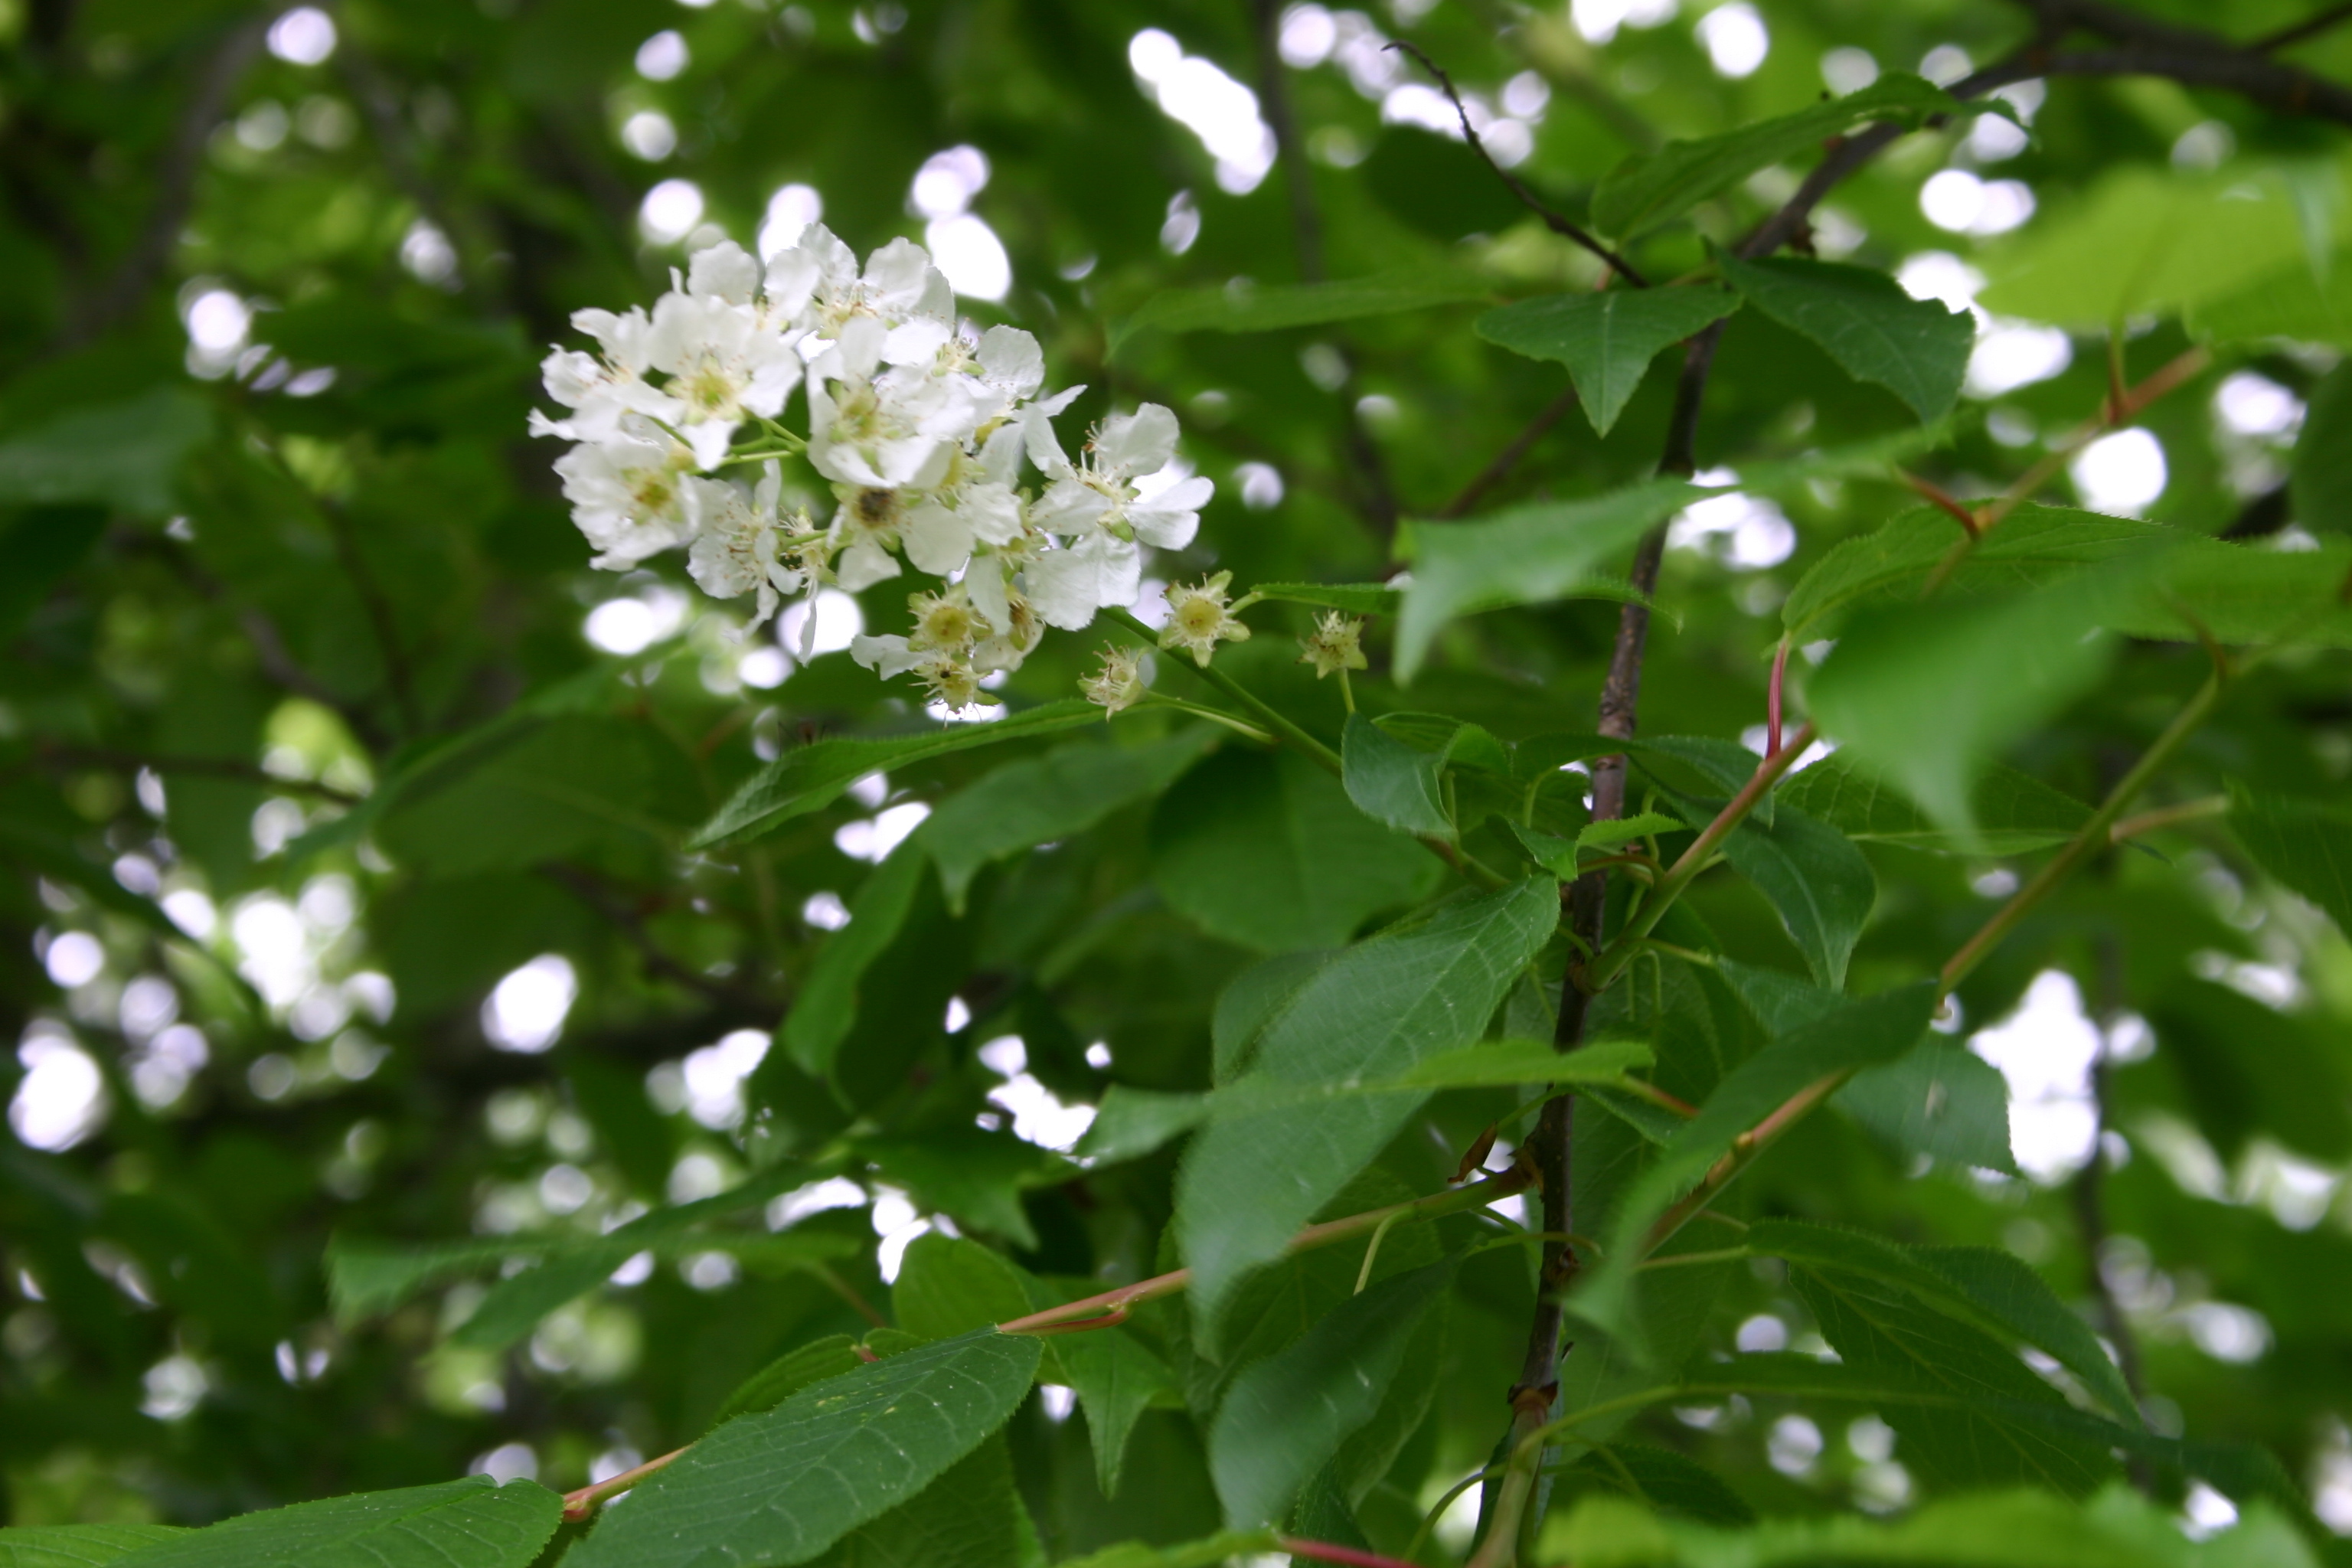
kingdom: Plantae
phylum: Tracheophyta
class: Magnoliopsida
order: Rosales
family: Rosaceae
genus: Prunus
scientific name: Prunus padus
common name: Bird cherry
